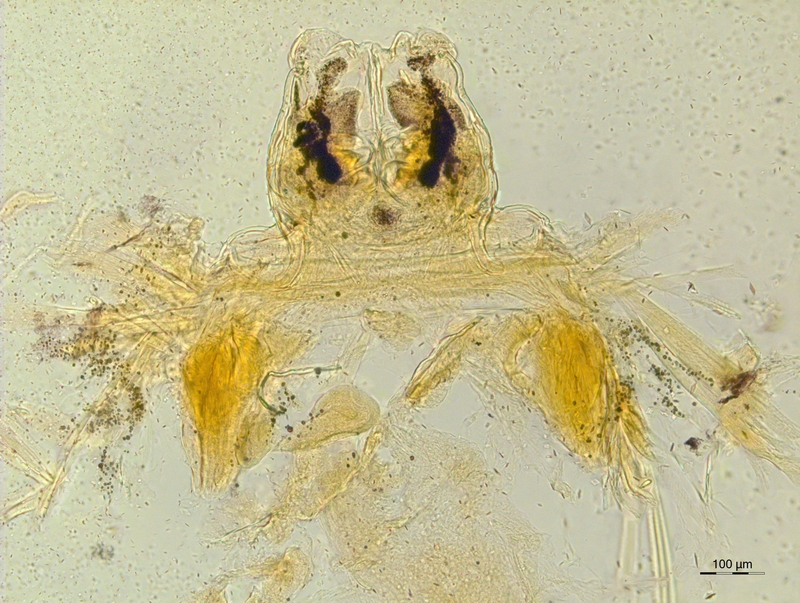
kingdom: Animalia
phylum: Arthropoda
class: Diplopoda
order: Chordeumatida
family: Craspedosomatidae
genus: Atractosoma
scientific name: Atractosoma marinense
